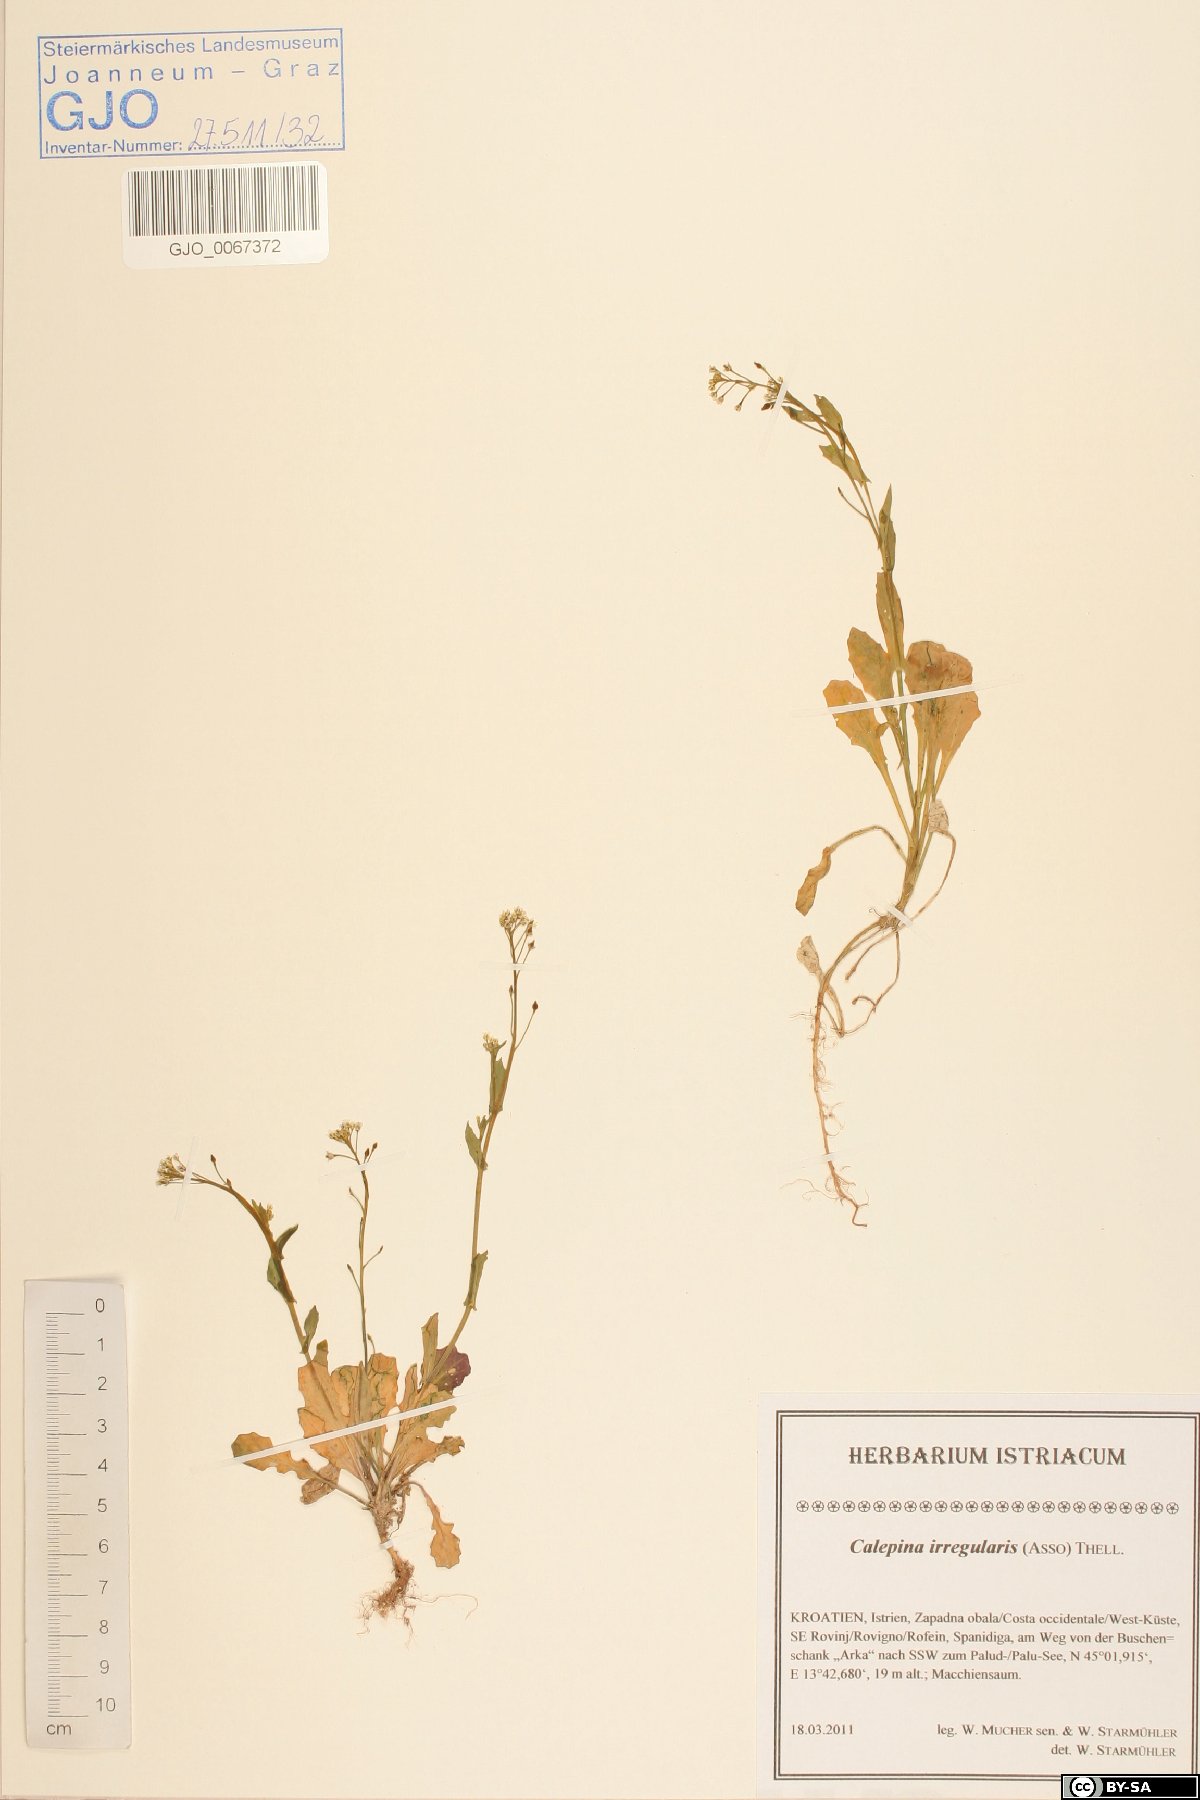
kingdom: Plantae
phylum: Tracheophyta
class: Magnoliopsida
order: Brassicales
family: Brassicaceae
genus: Calepina
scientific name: Calepina irregularis
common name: White ballmustard
